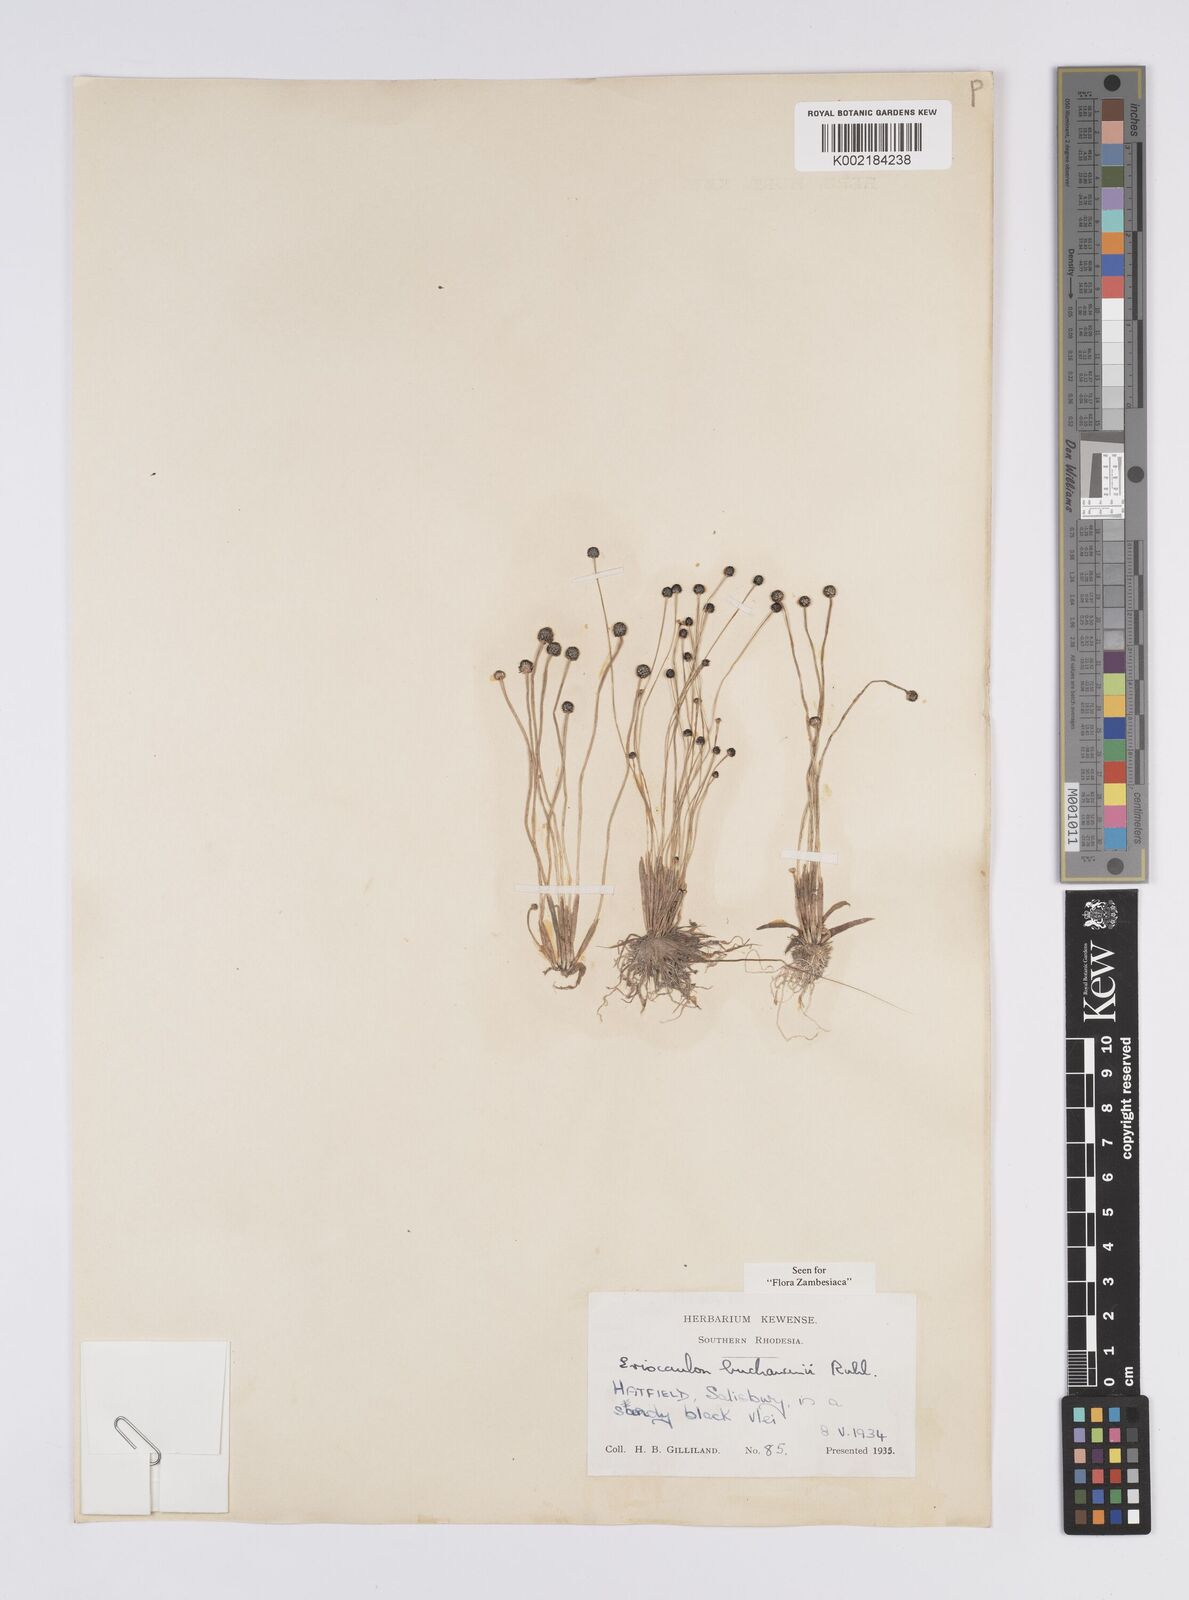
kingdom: Plantae
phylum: Tracheophyta
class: Liliopsida
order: Poales
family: Eriocaulaceae
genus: Eriocaulon
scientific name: Eriocaulon buchananii
